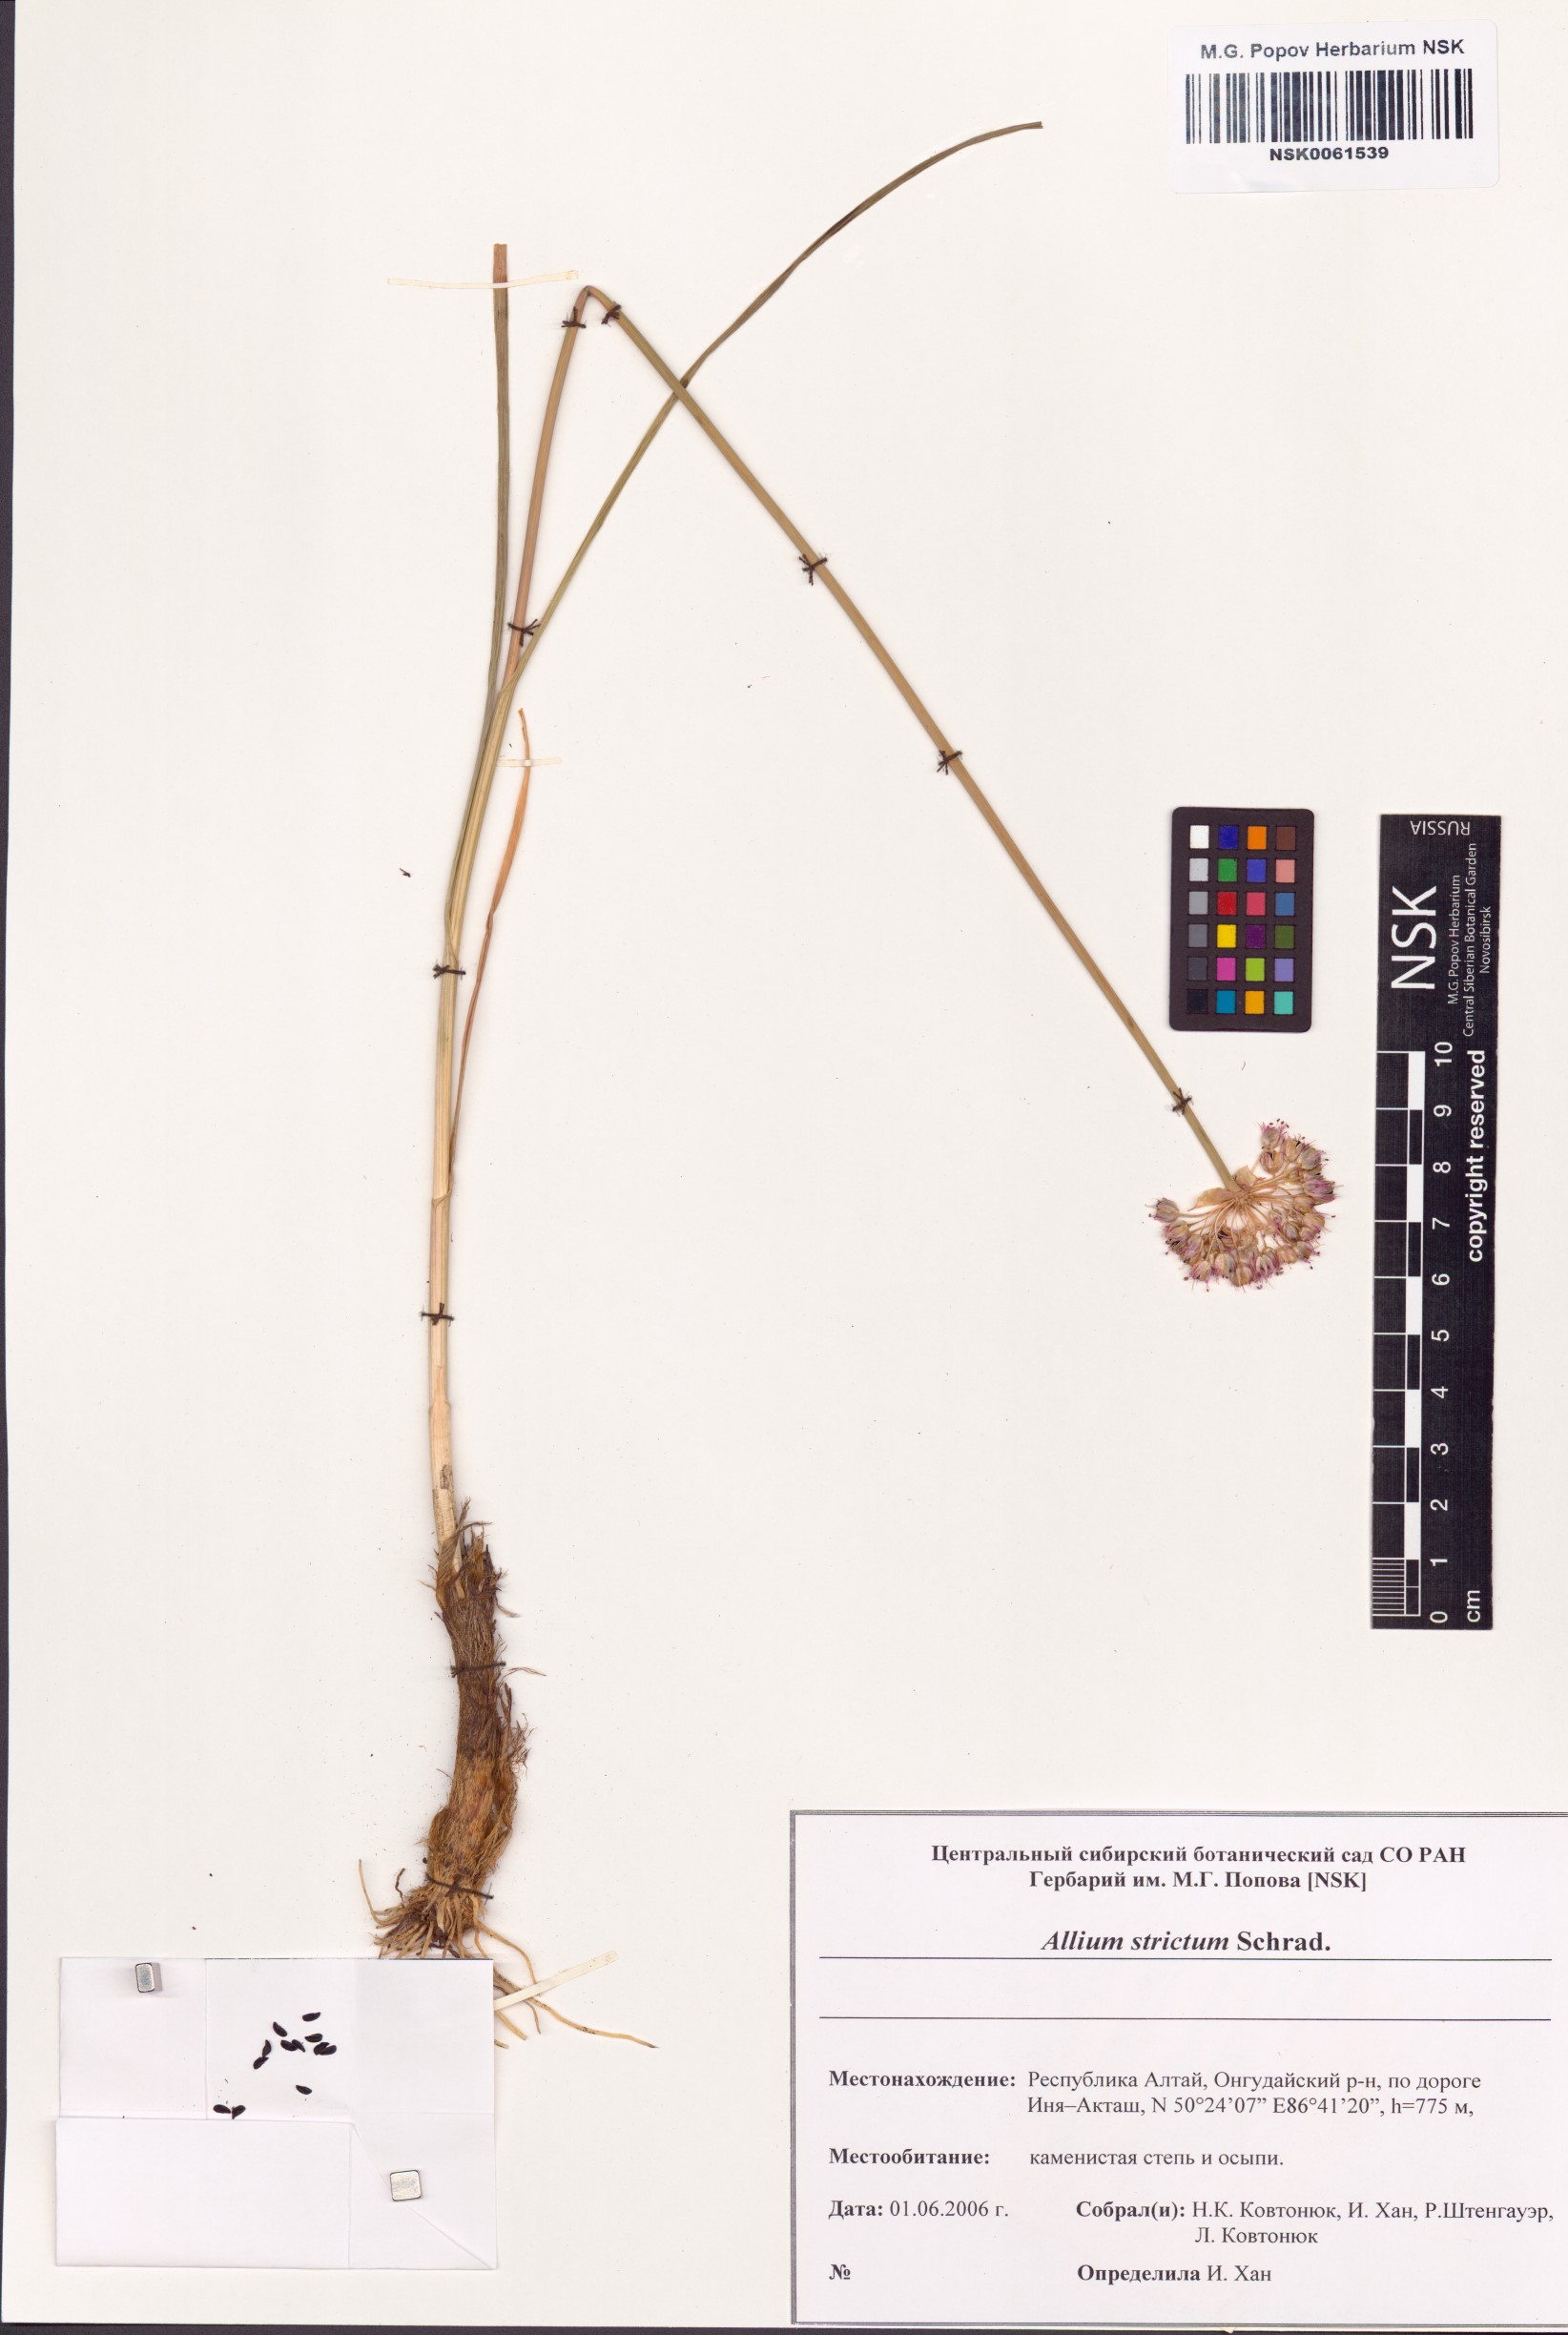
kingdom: Plantae
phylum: Tracheophyta
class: Liliopsida
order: Asparagales
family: Amaryllidaceae
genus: Allium
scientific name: Allium strictum
